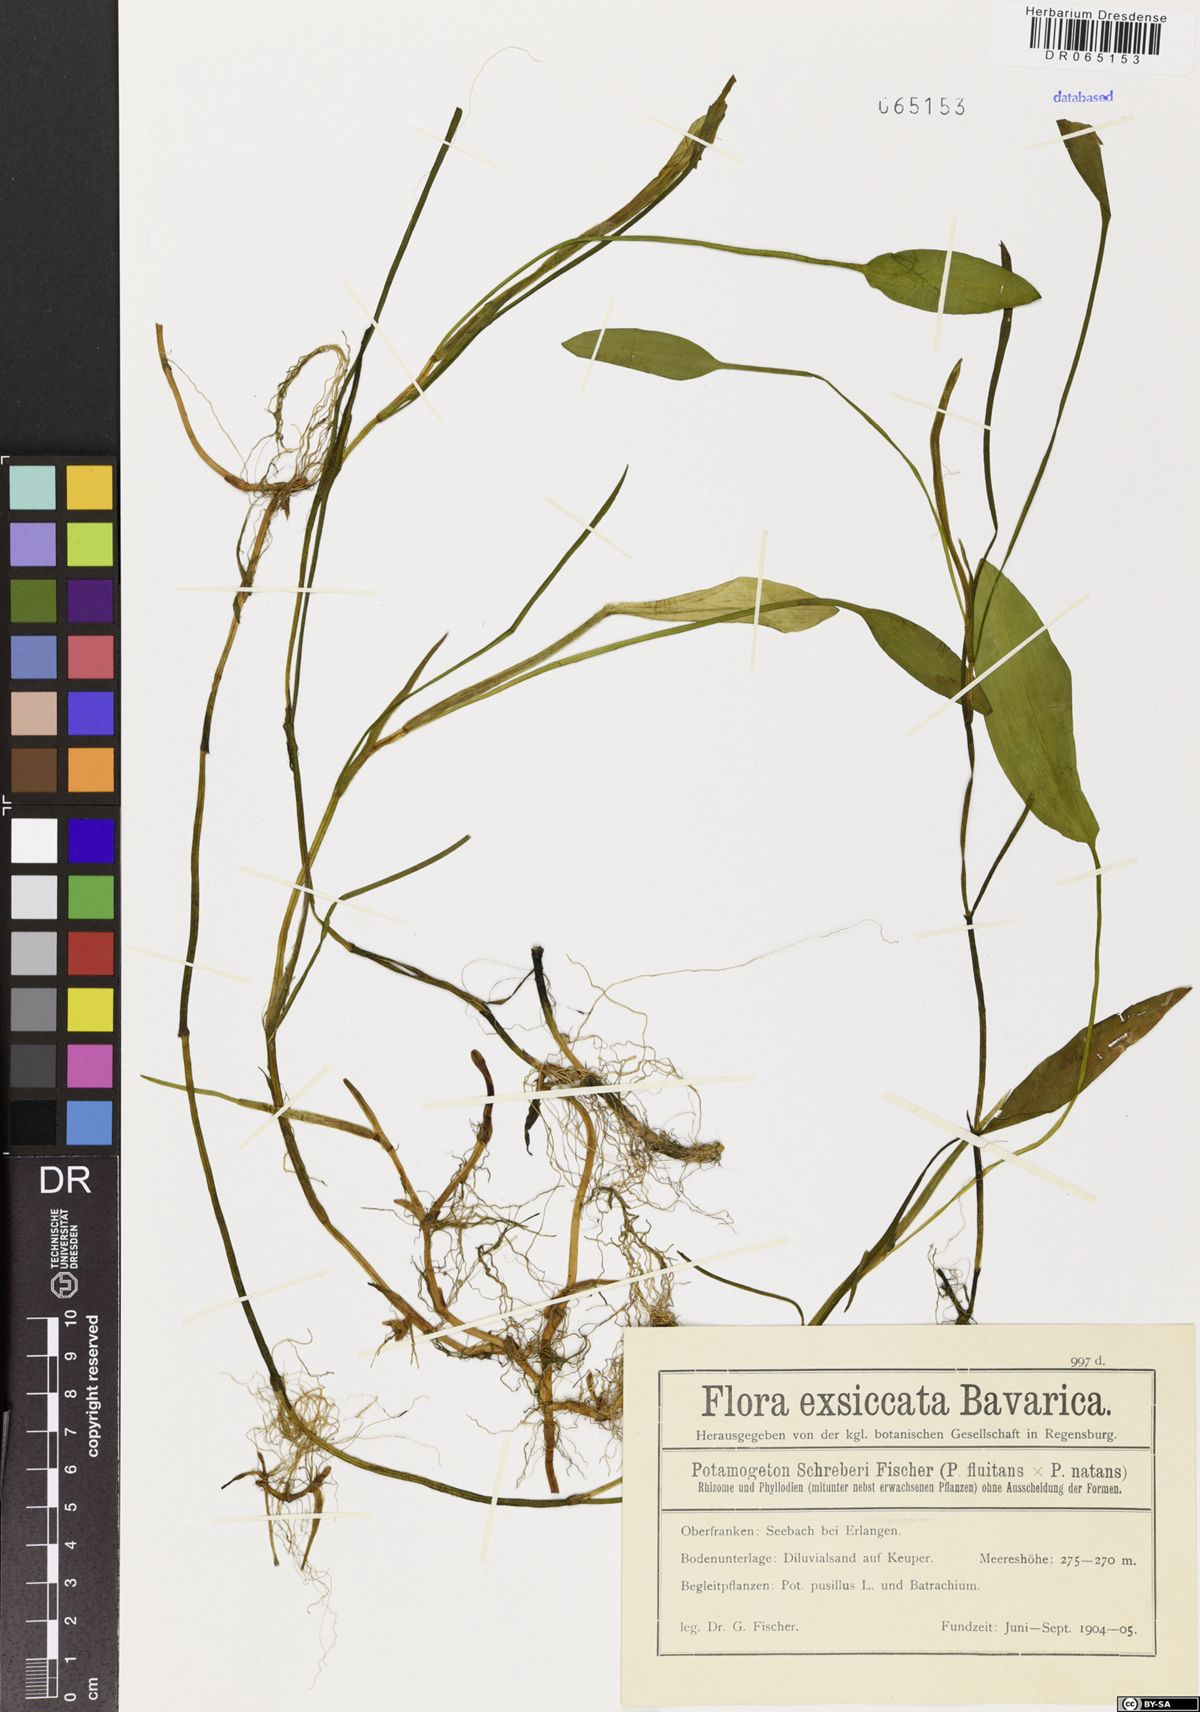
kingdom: Plantae
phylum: Tracheophyta
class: Liliopsida
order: Alismatales
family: Potamogetonaceae
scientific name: Potamogetonaceae
